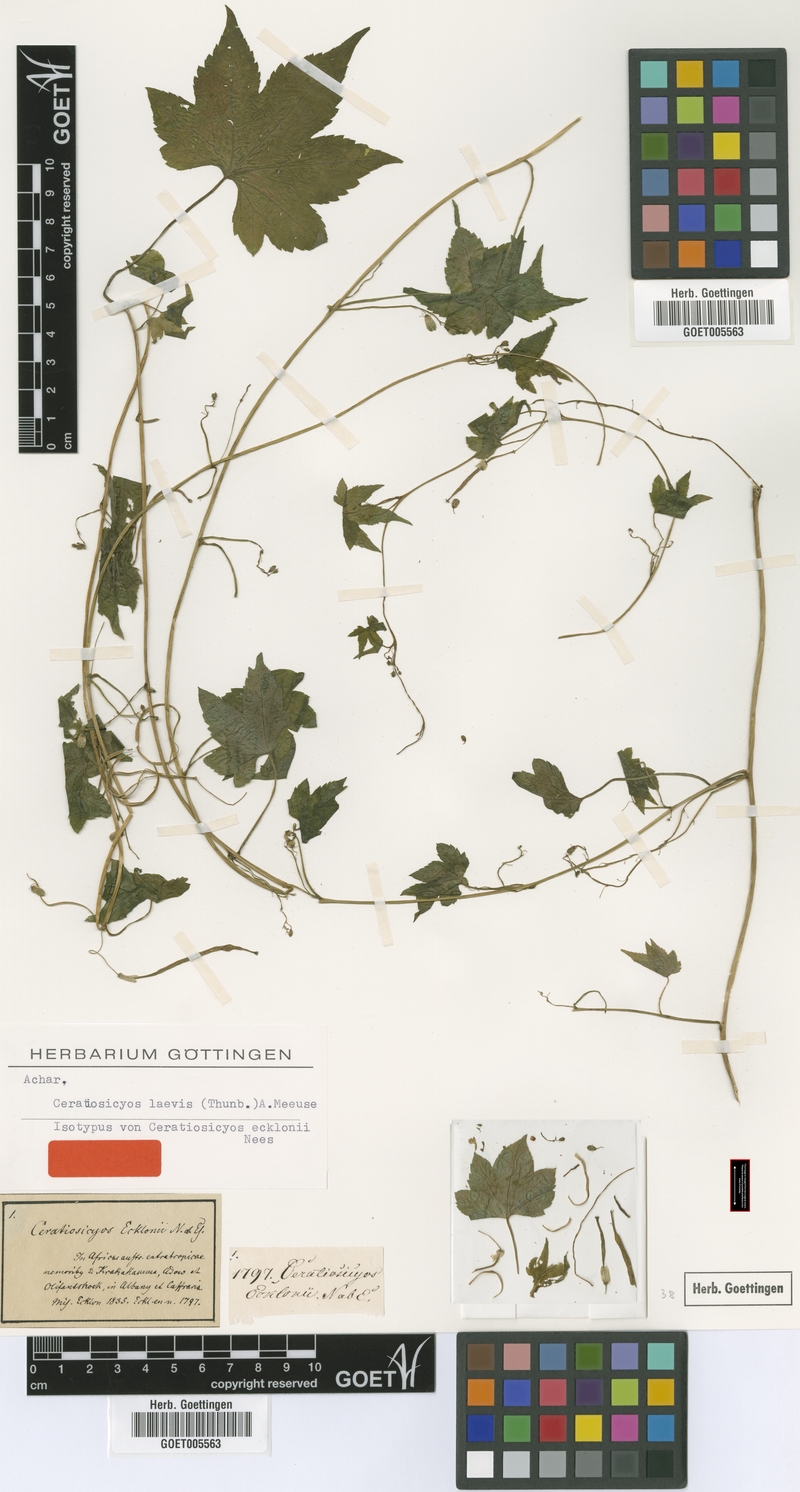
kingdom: Plantae
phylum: Tracheophyta
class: Magnoliopsida
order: Malpighiales
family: Achariaceae
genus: Ceratiosicyos
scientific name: Ceratiosicyos laevis
